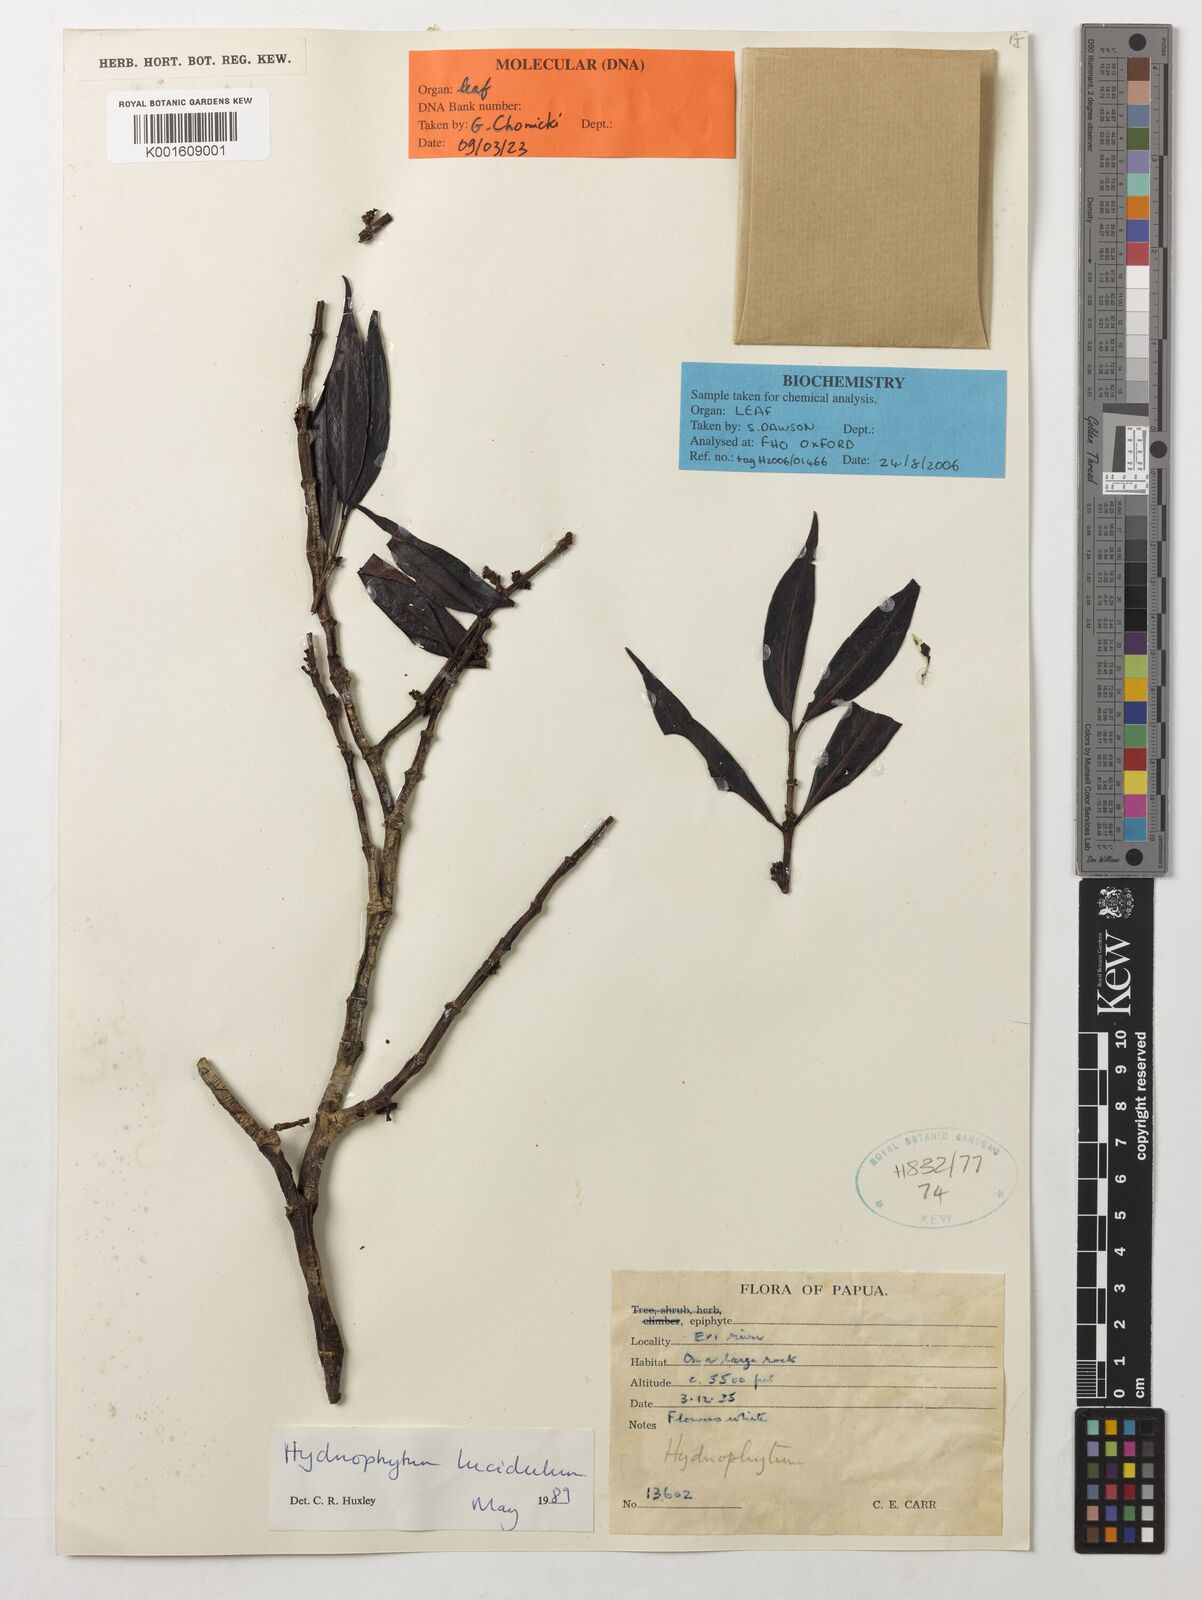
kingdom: Plantae
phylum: Tracheophyta
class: Magnoliopsida
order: Gentianales
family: Rubiaceae
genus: Hydnophytum
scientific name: Hydnophytum lucidulum
